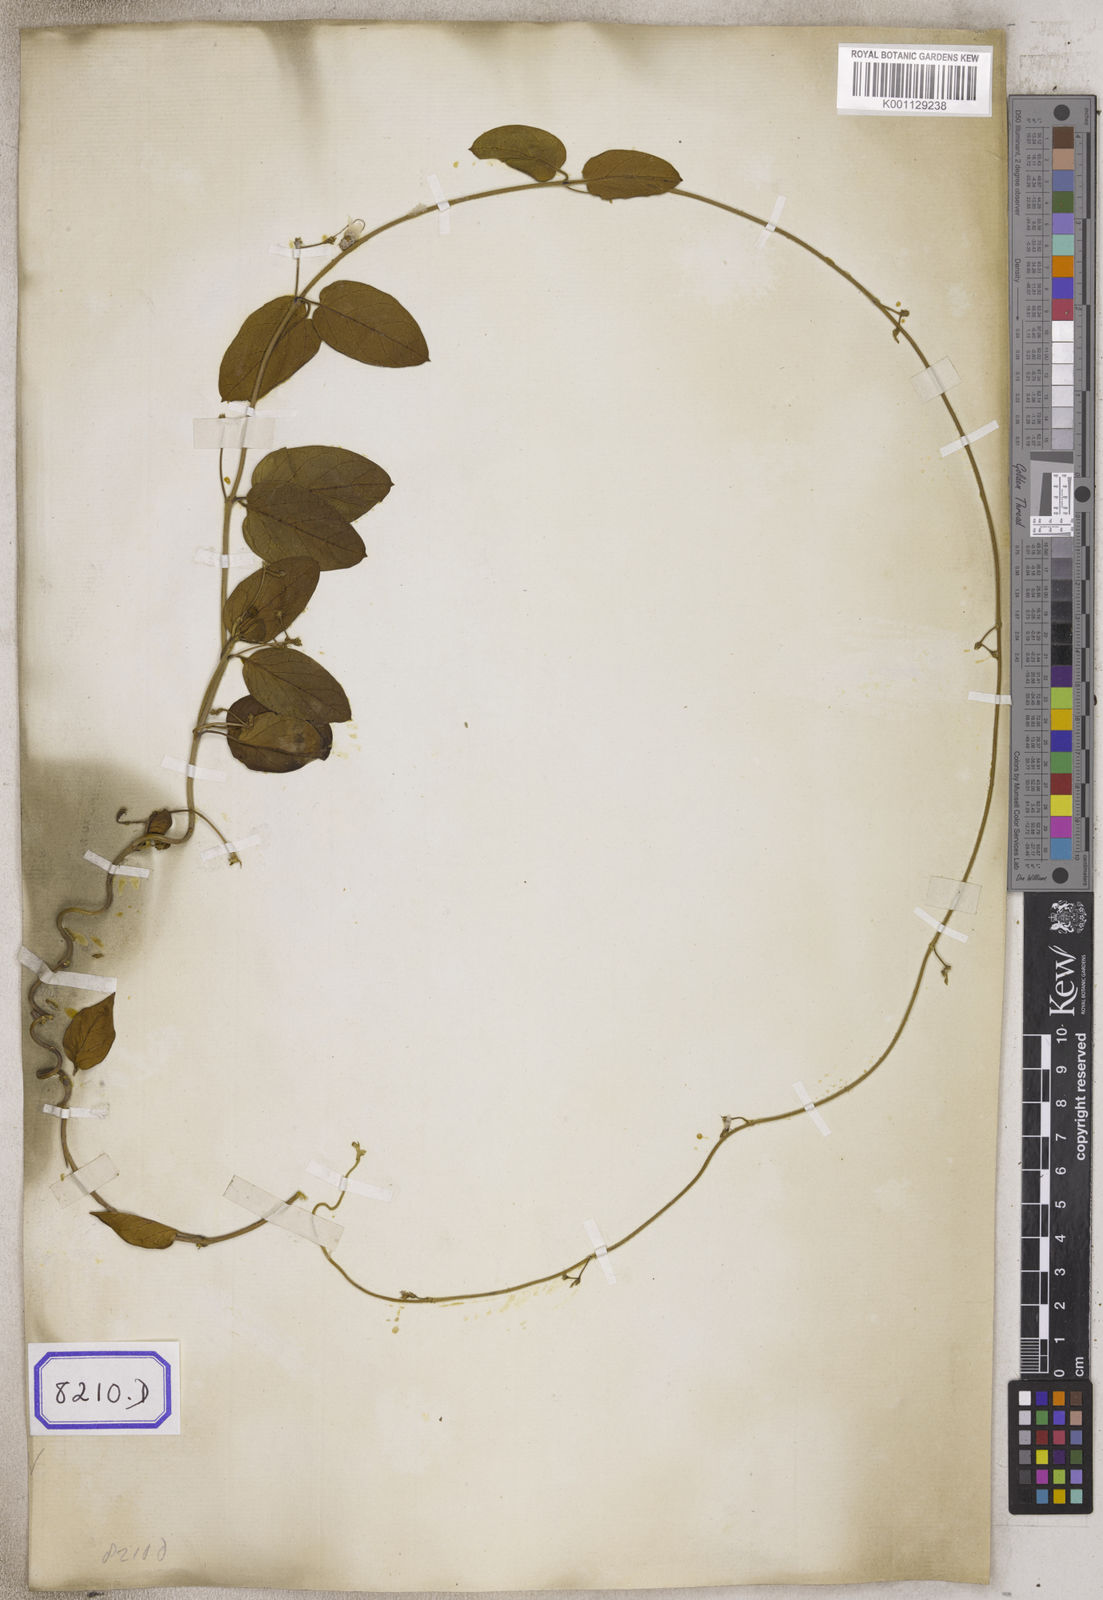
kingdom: Plantae
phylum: Tracheophyta
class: Magnoliopsida
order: Gentianales
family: Apocynaceae
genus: Vincetoxicum
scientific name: Vincetoxicum indicum
